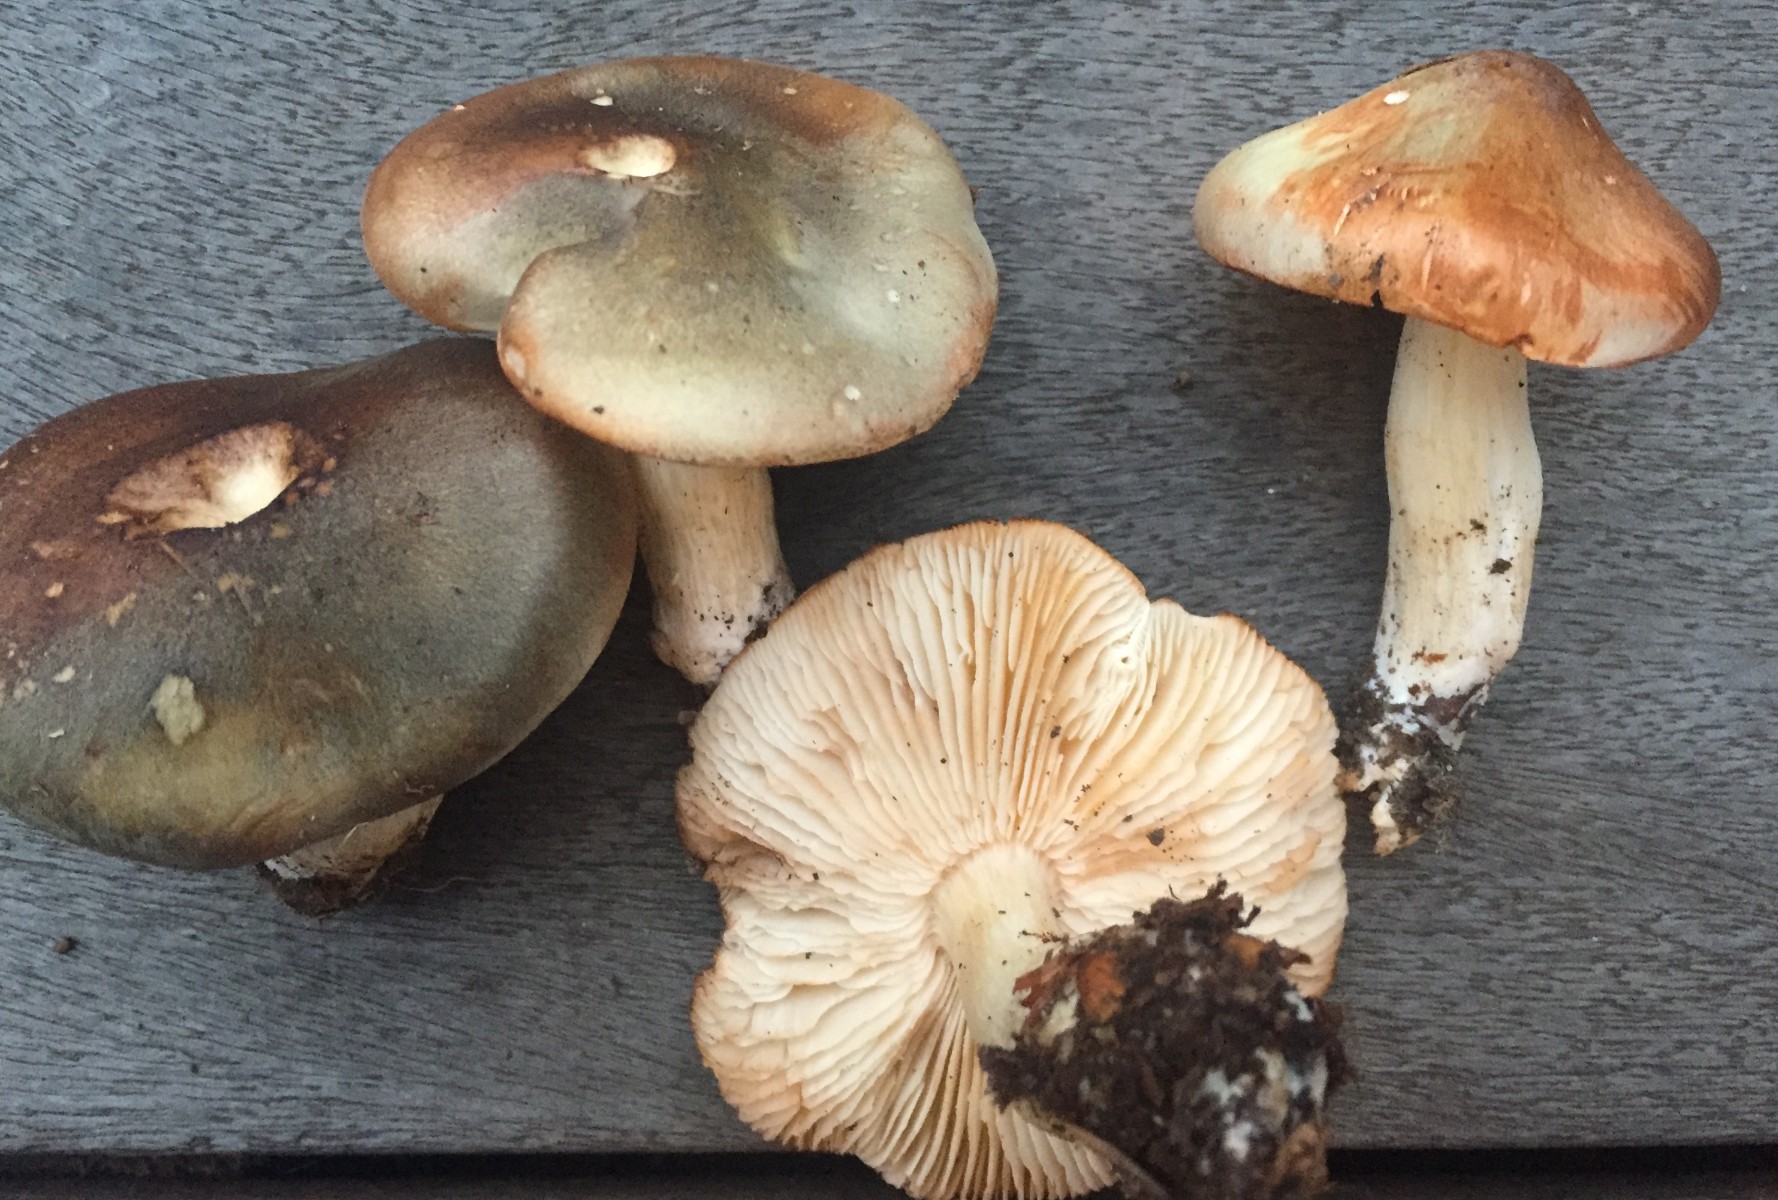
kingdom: Fungi
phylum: Basidiomycota
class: Agaricomycetes
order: Agaricales
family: Tricholomataceae
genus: Tricholoma
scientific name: Tricholoma saponaceum
